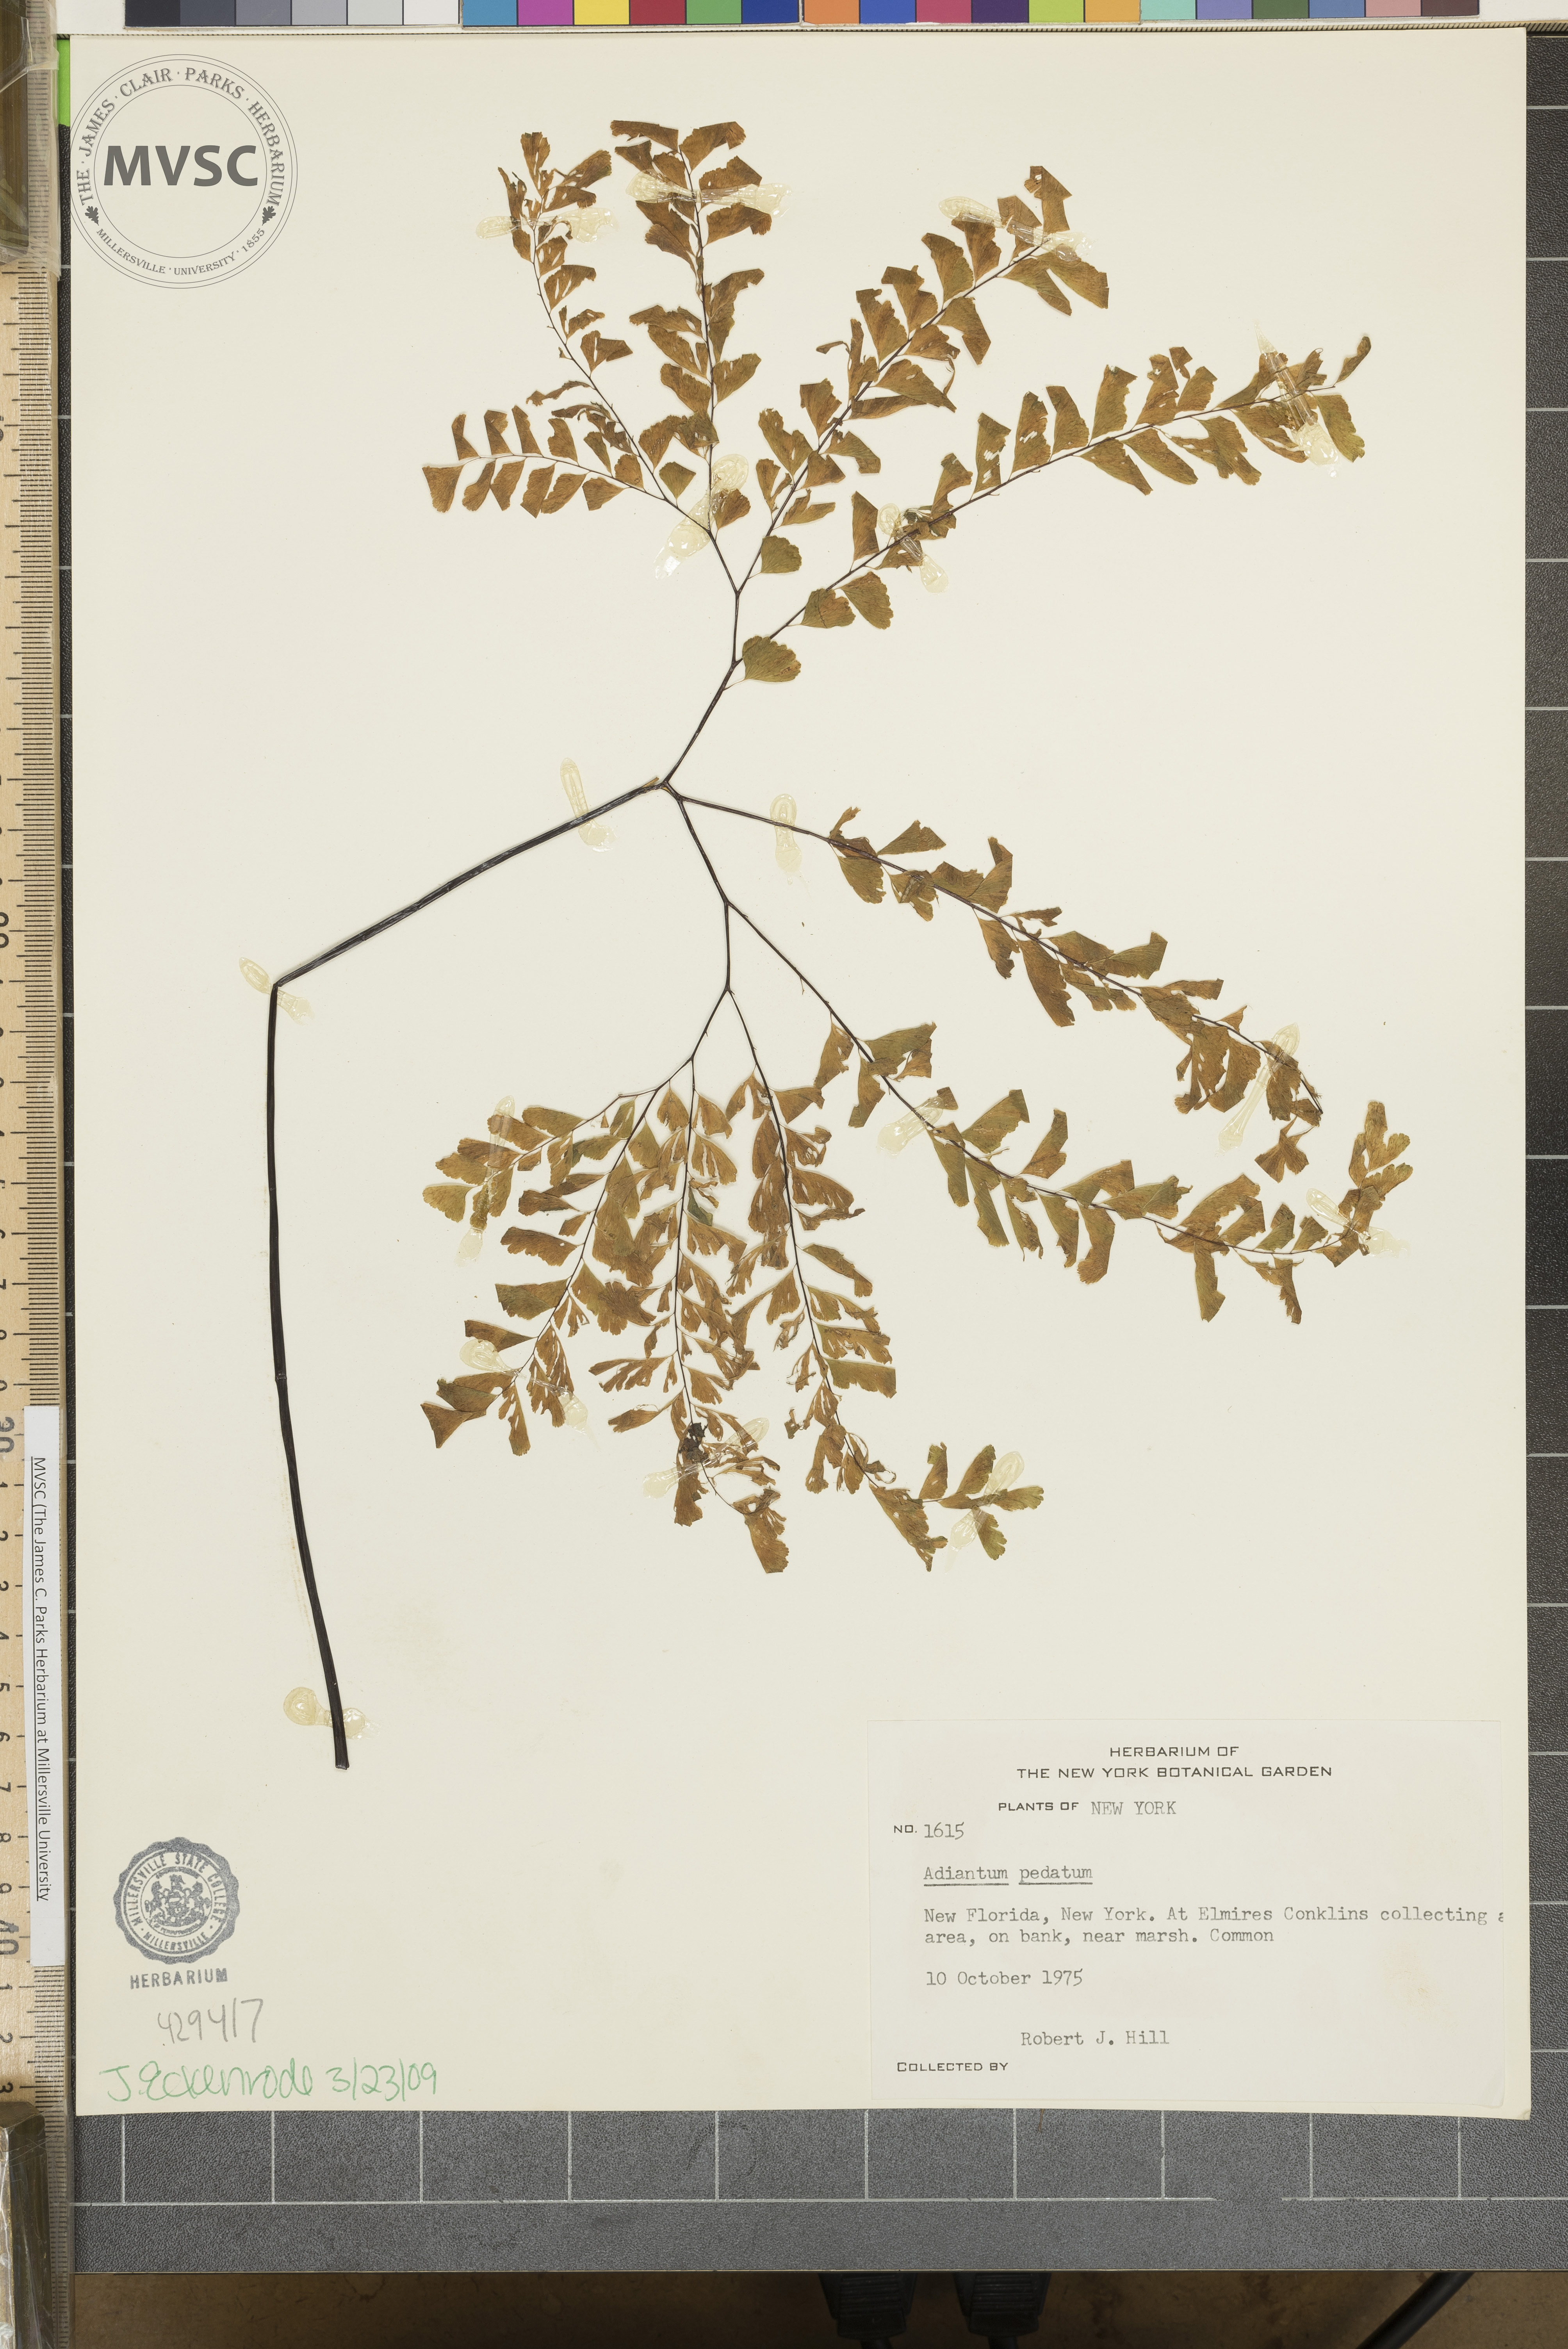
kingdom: Plantae
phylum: Tracheophyta
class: Polypodiopsida
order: Polypodiales
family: Pteridaceae
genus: Adiantum
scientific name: Adiantum pedatum
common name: Five-finger fern
